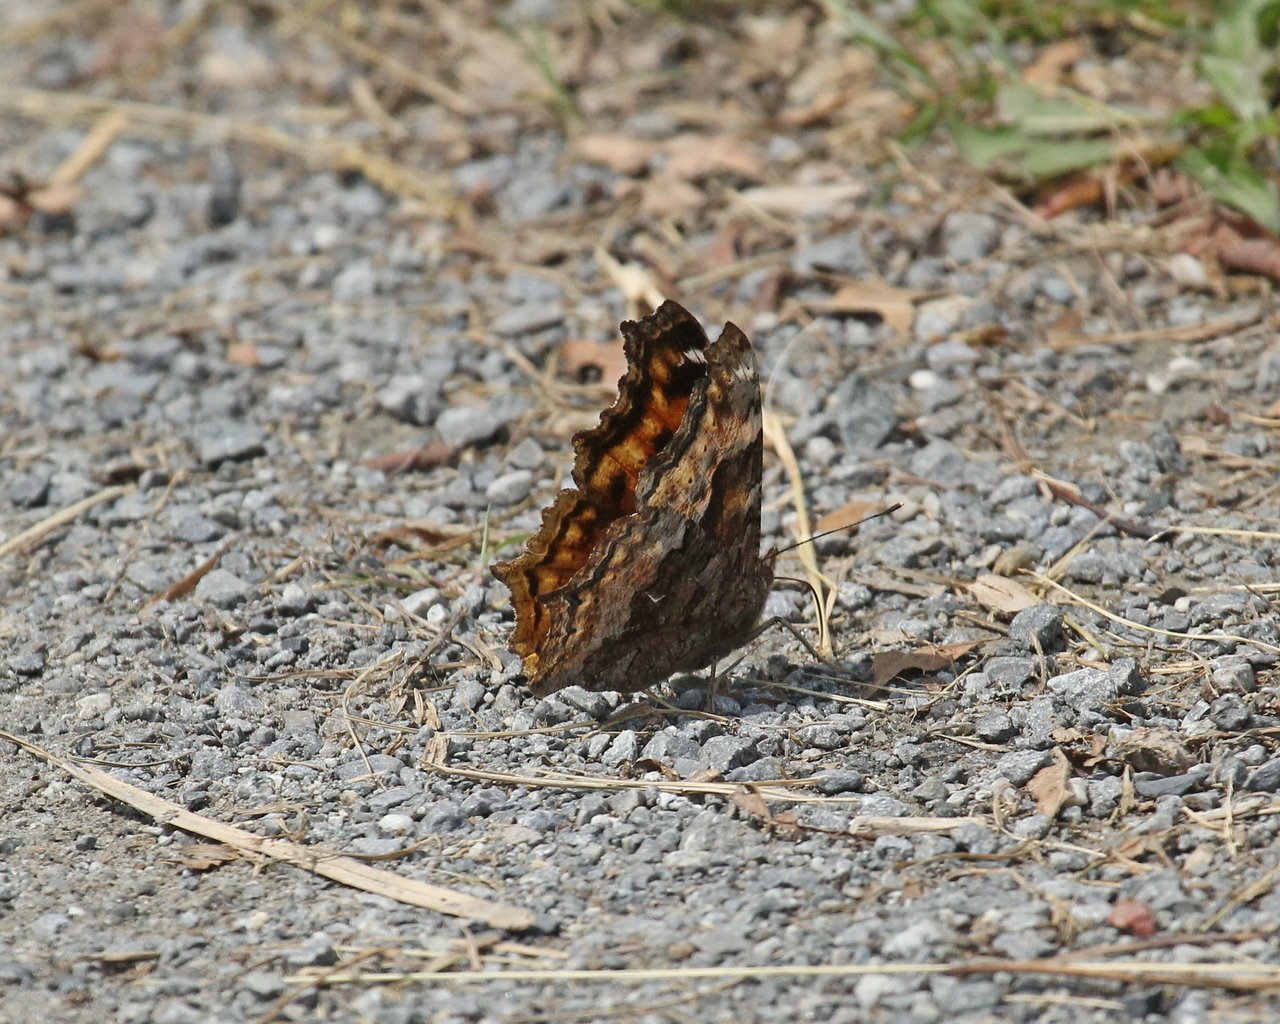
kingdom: Animalia
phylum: Arthropoda
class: Insecta
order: Lepidoptera
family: Nymphalidae
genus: Polygonia
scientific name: Polygonia vaualbum
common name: Compton Tortoiseshell
